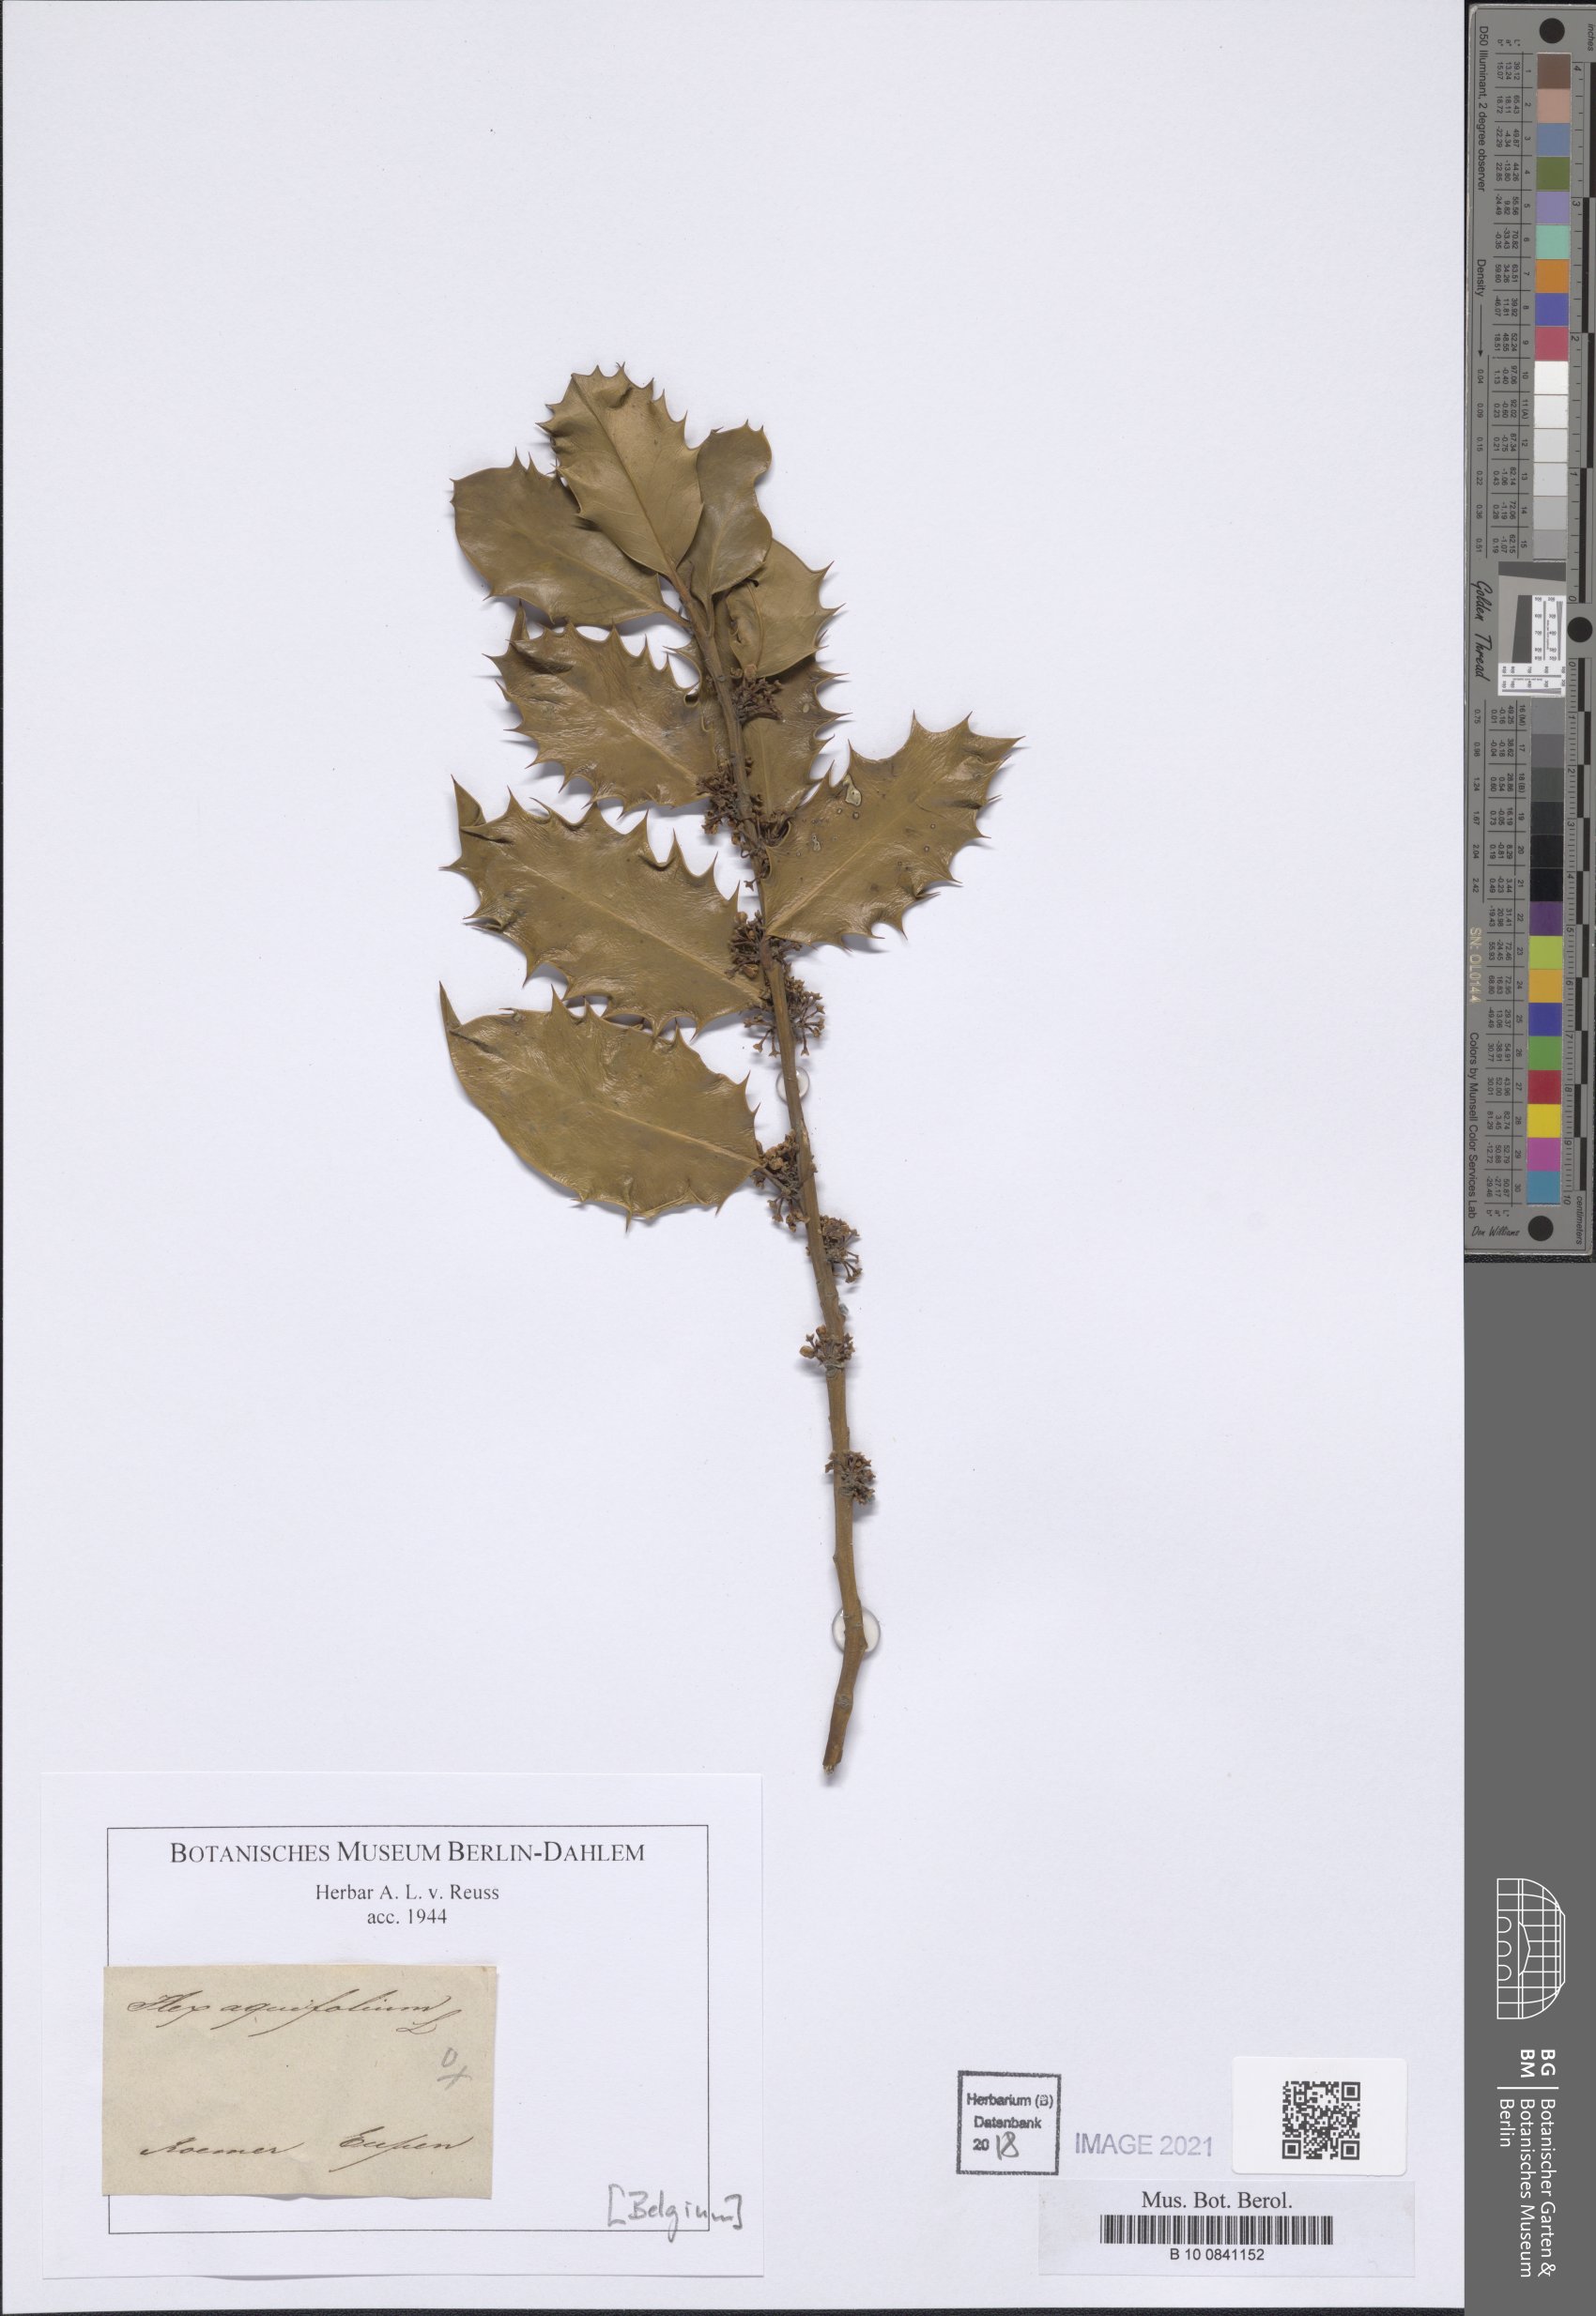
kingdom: Plantae
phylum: Tracheophyta
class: Magnoliopsida
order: Aquifoliales
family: Aquifoliaceae
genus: Ilex
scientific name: Ilex aquifolium
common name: English holly
